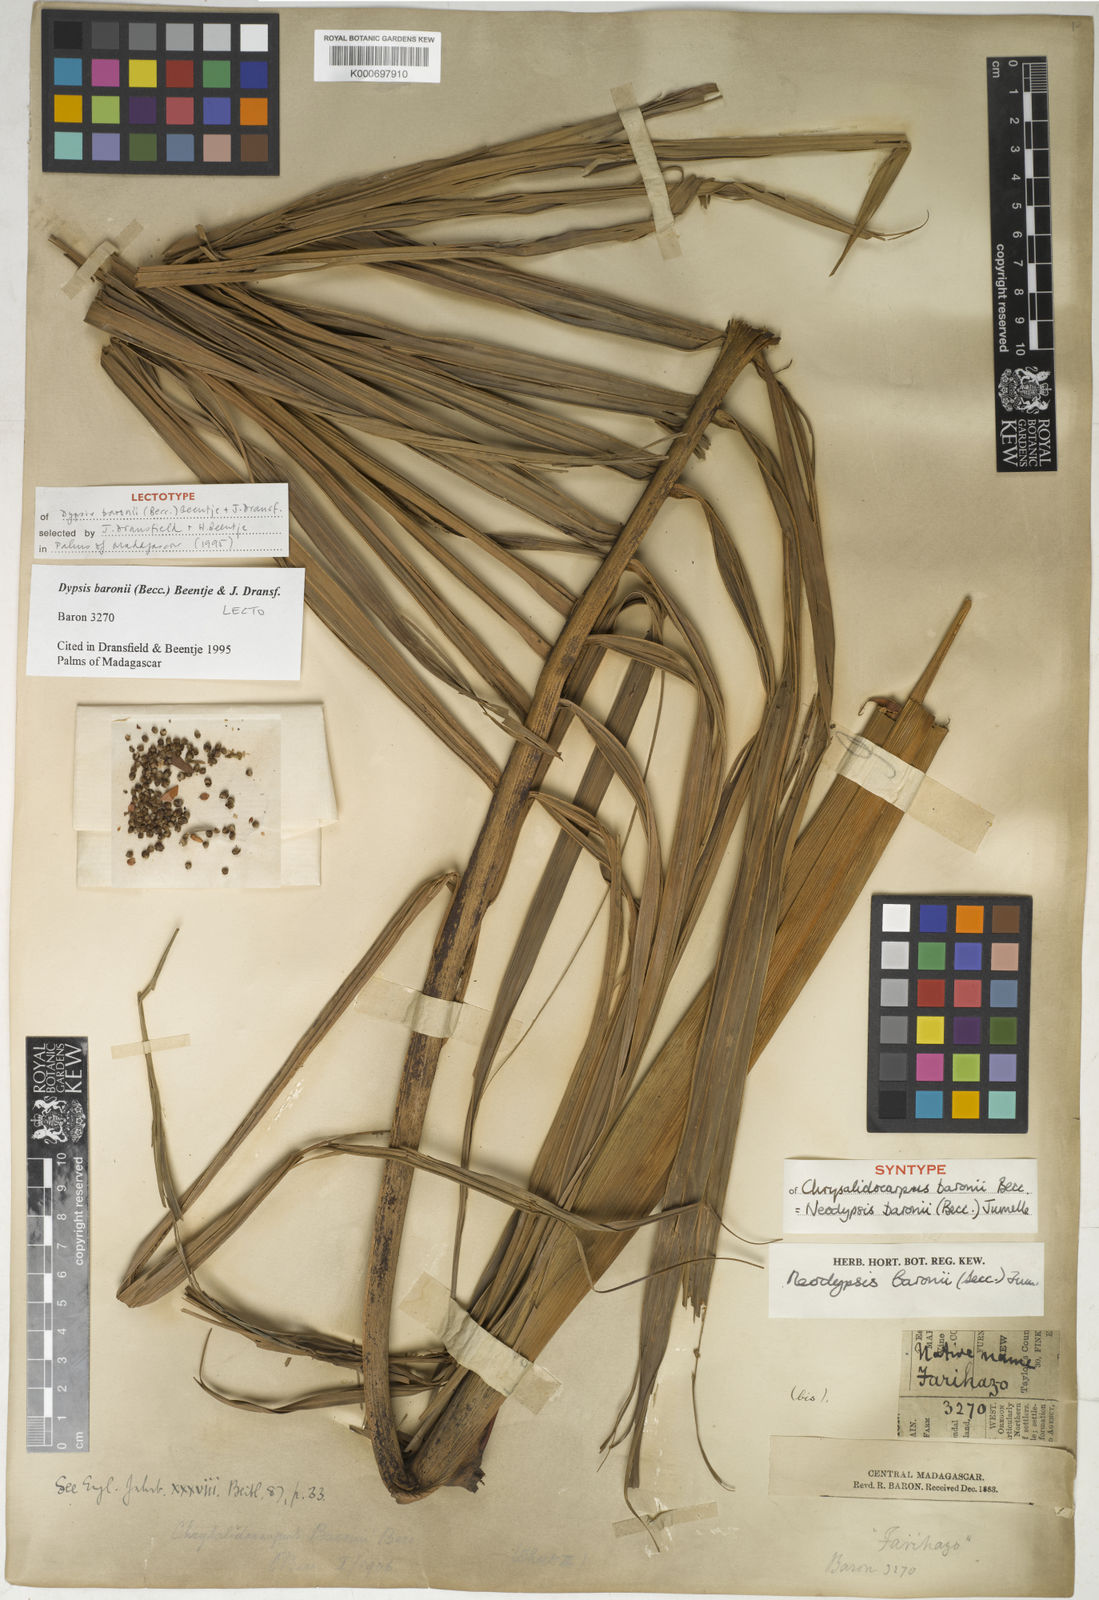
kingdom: Plantae
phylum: Tracheophyta
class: Liliopsida
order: Arecales
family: Arecaceae
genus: Dypsis
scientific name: Dypsis baronii
